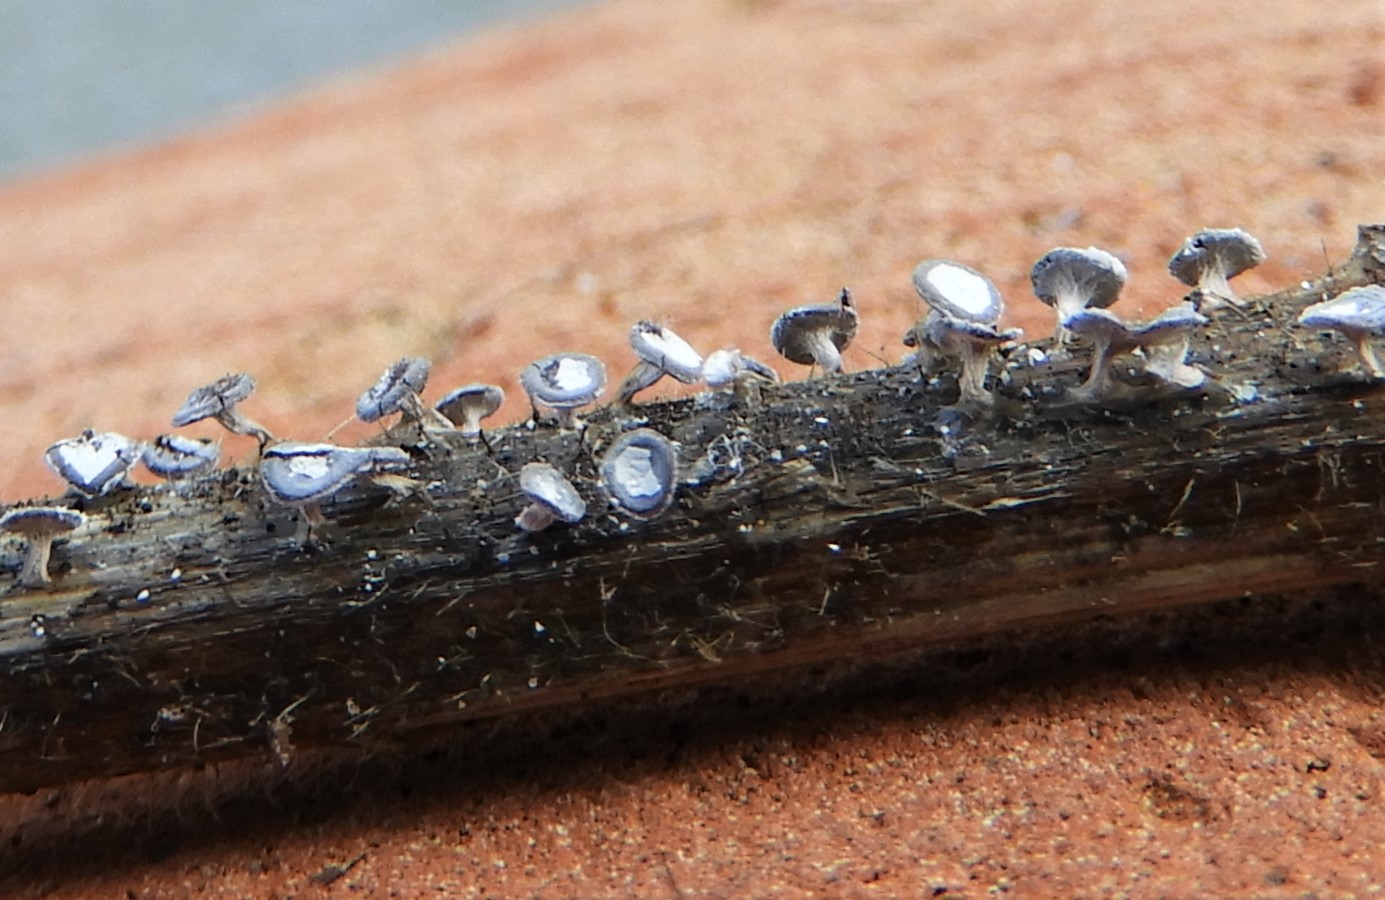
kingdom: Protozoa
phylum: Mycetozoa
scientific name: Mycetozoa
